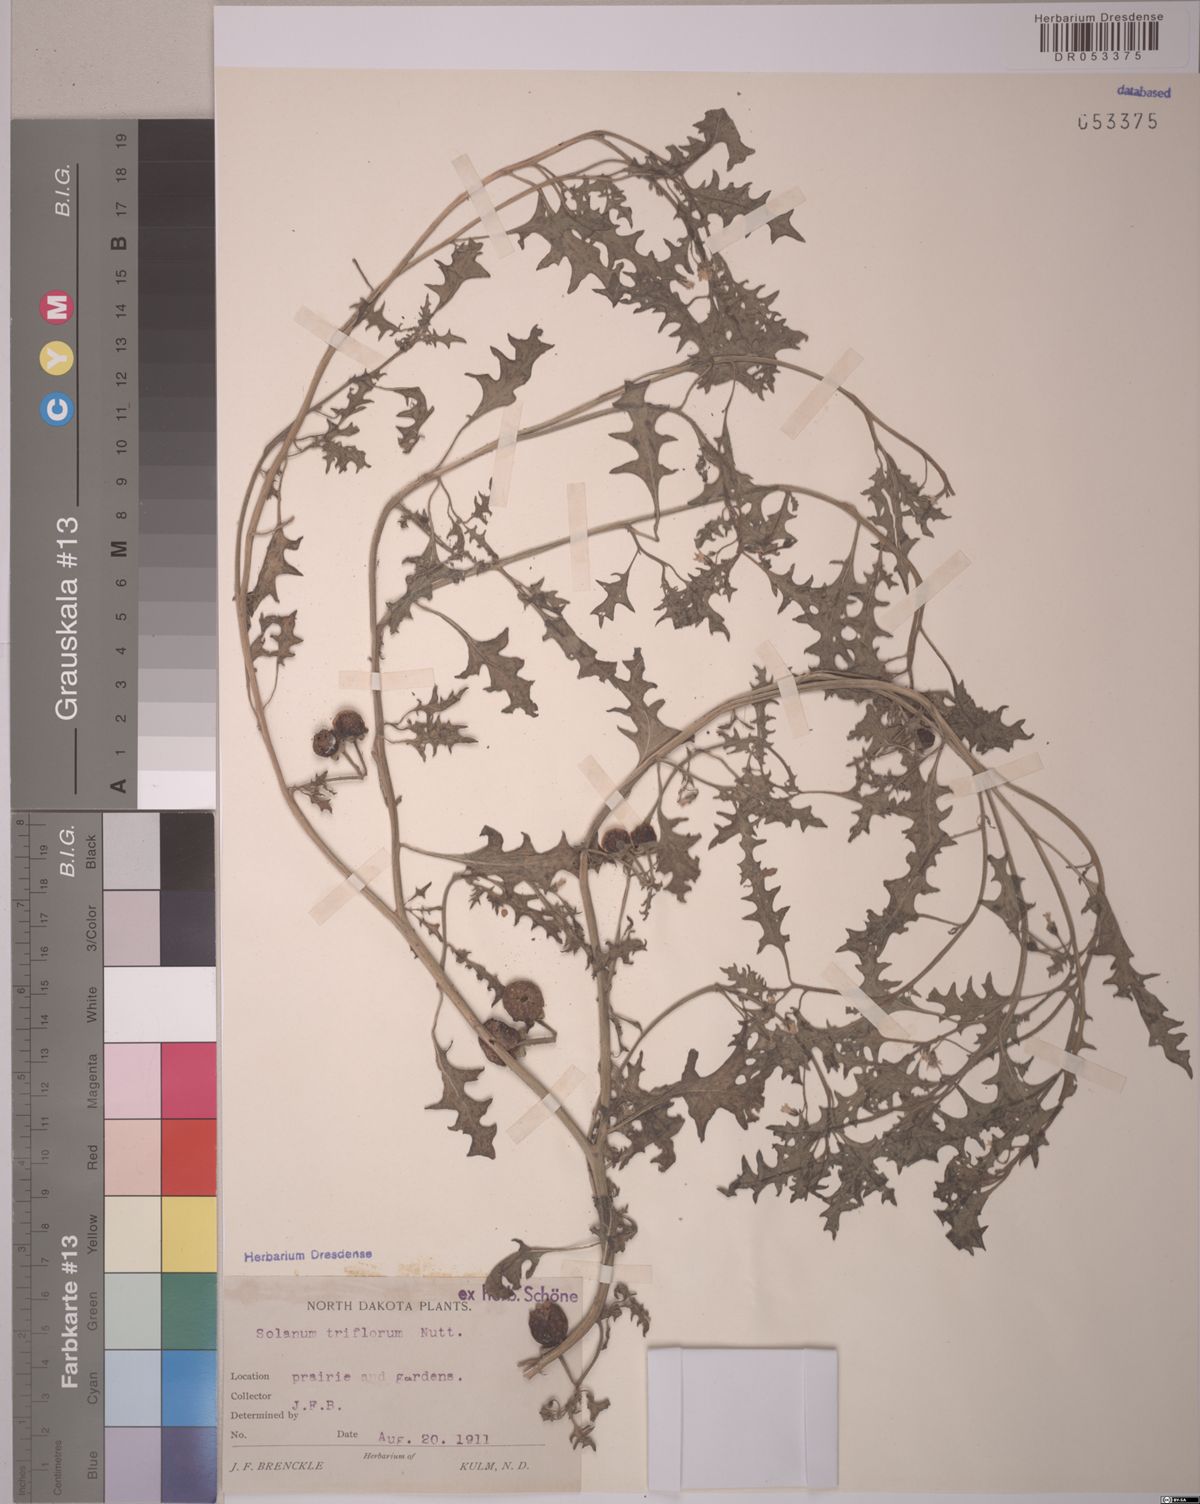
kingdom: Plantae
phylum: Tracheophyta
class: Magnoliopsida
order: Solanales
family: Solanaceae
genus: Solanum
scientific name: Solanum triflorum
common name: Small nightshade
